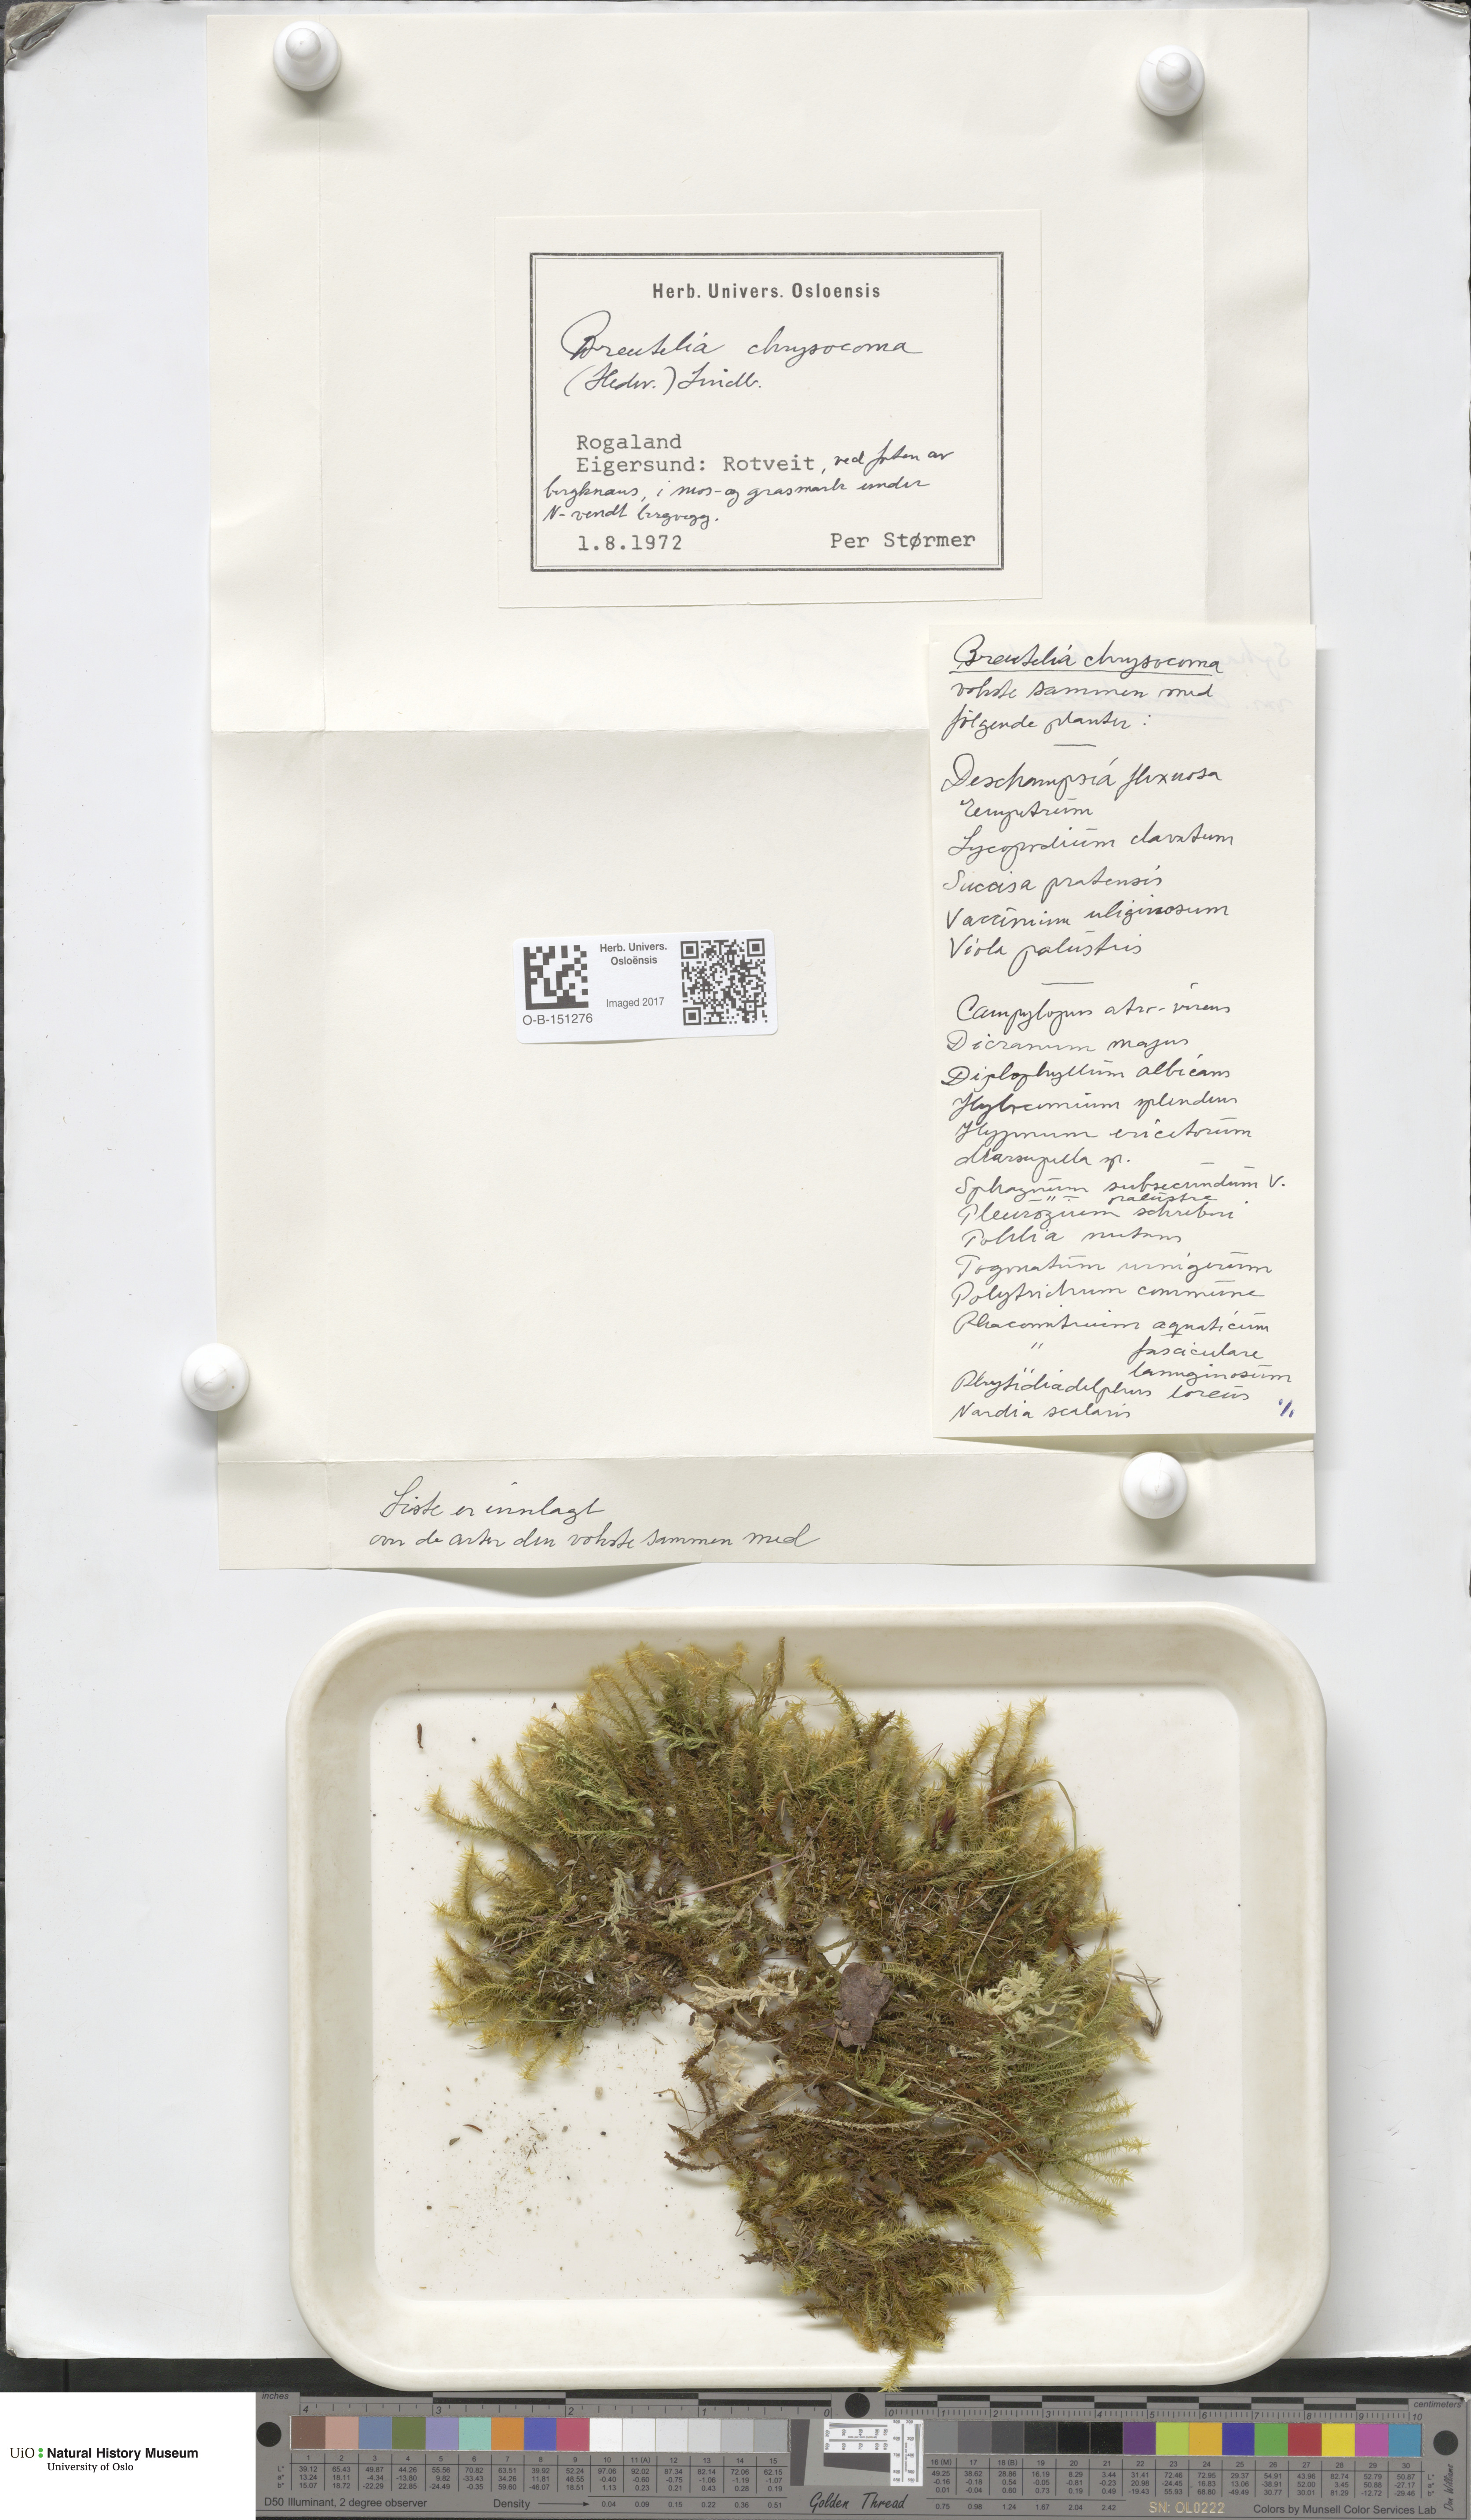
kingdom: Plantae
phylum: Bryophyta
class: Bryopsida
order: Bartramiales
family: Bartramiaceae
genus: Breutelia
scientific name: Breutelia chrysocoma
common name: Bottle-brush moss
